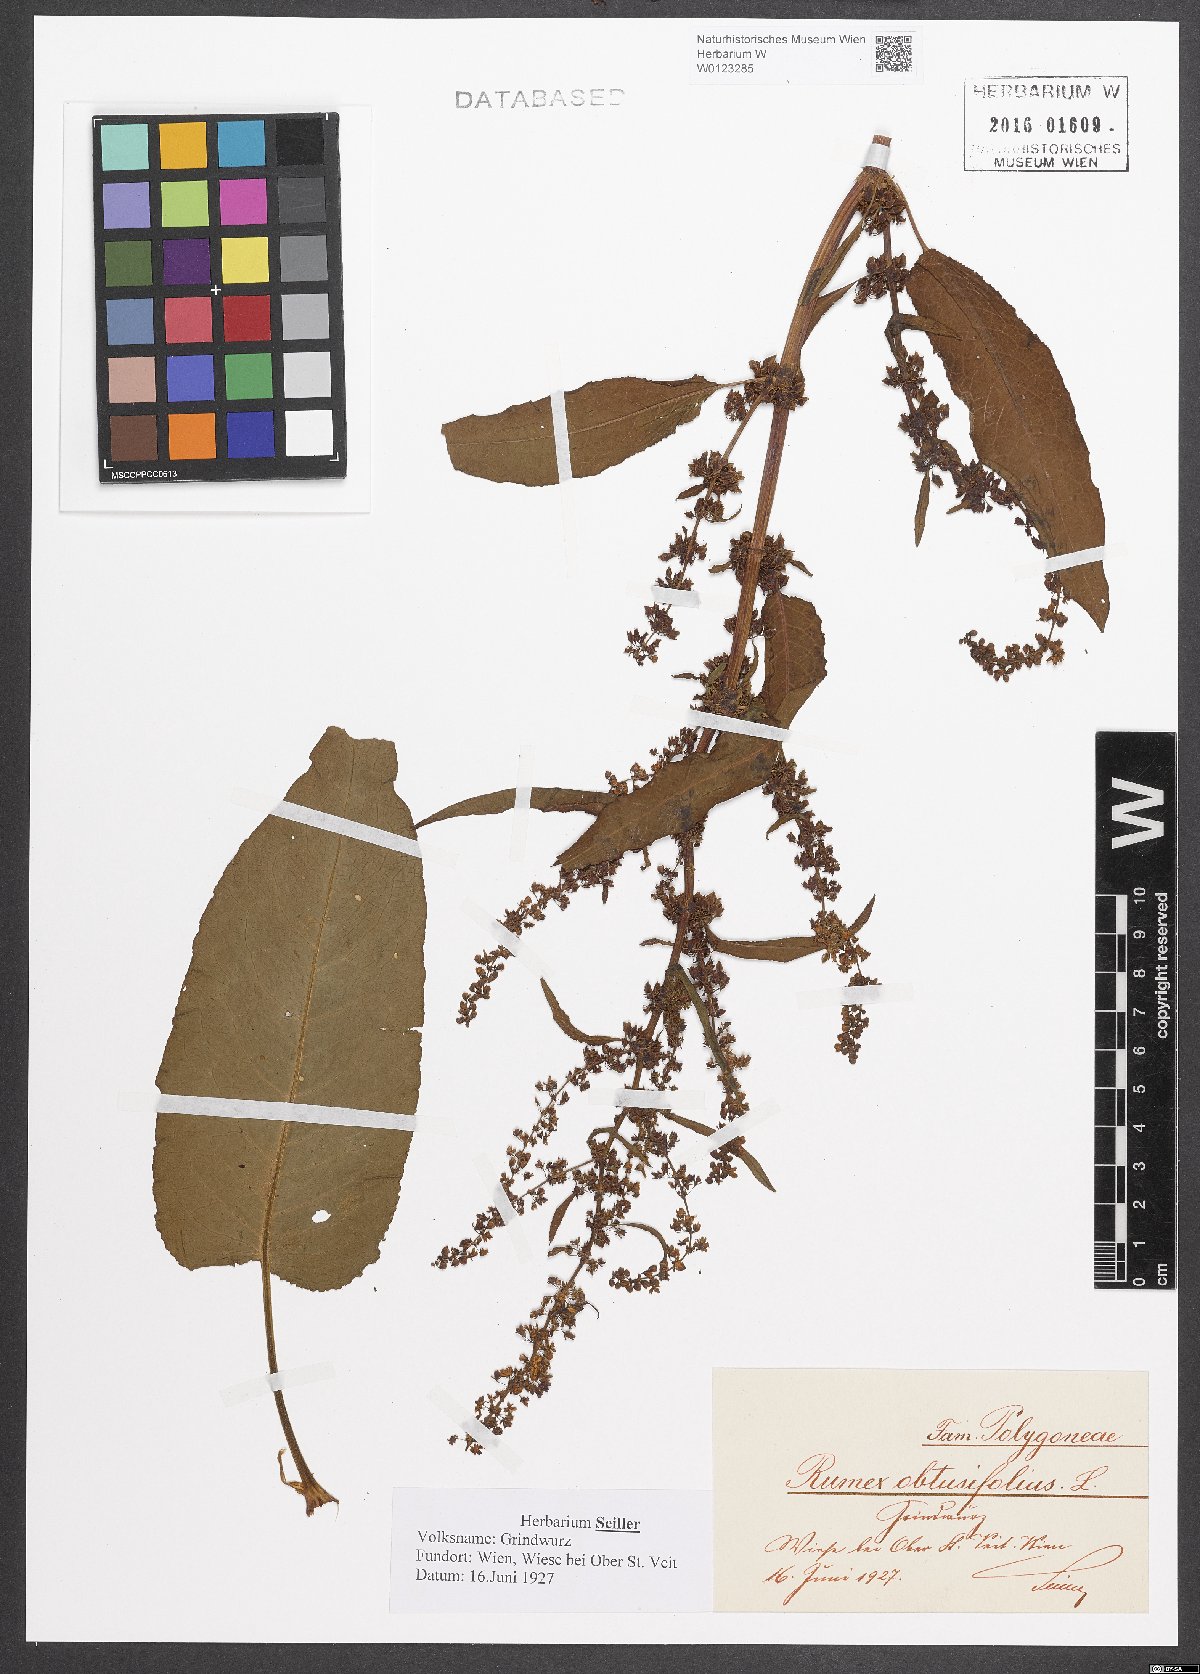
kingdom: Plantae
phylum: Tracheophyta
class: Magnoliopsida
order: Caryophyllales
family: Polygonaceae
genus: Rumex
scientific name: Rumex obtusifolius
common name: Bitter dock
